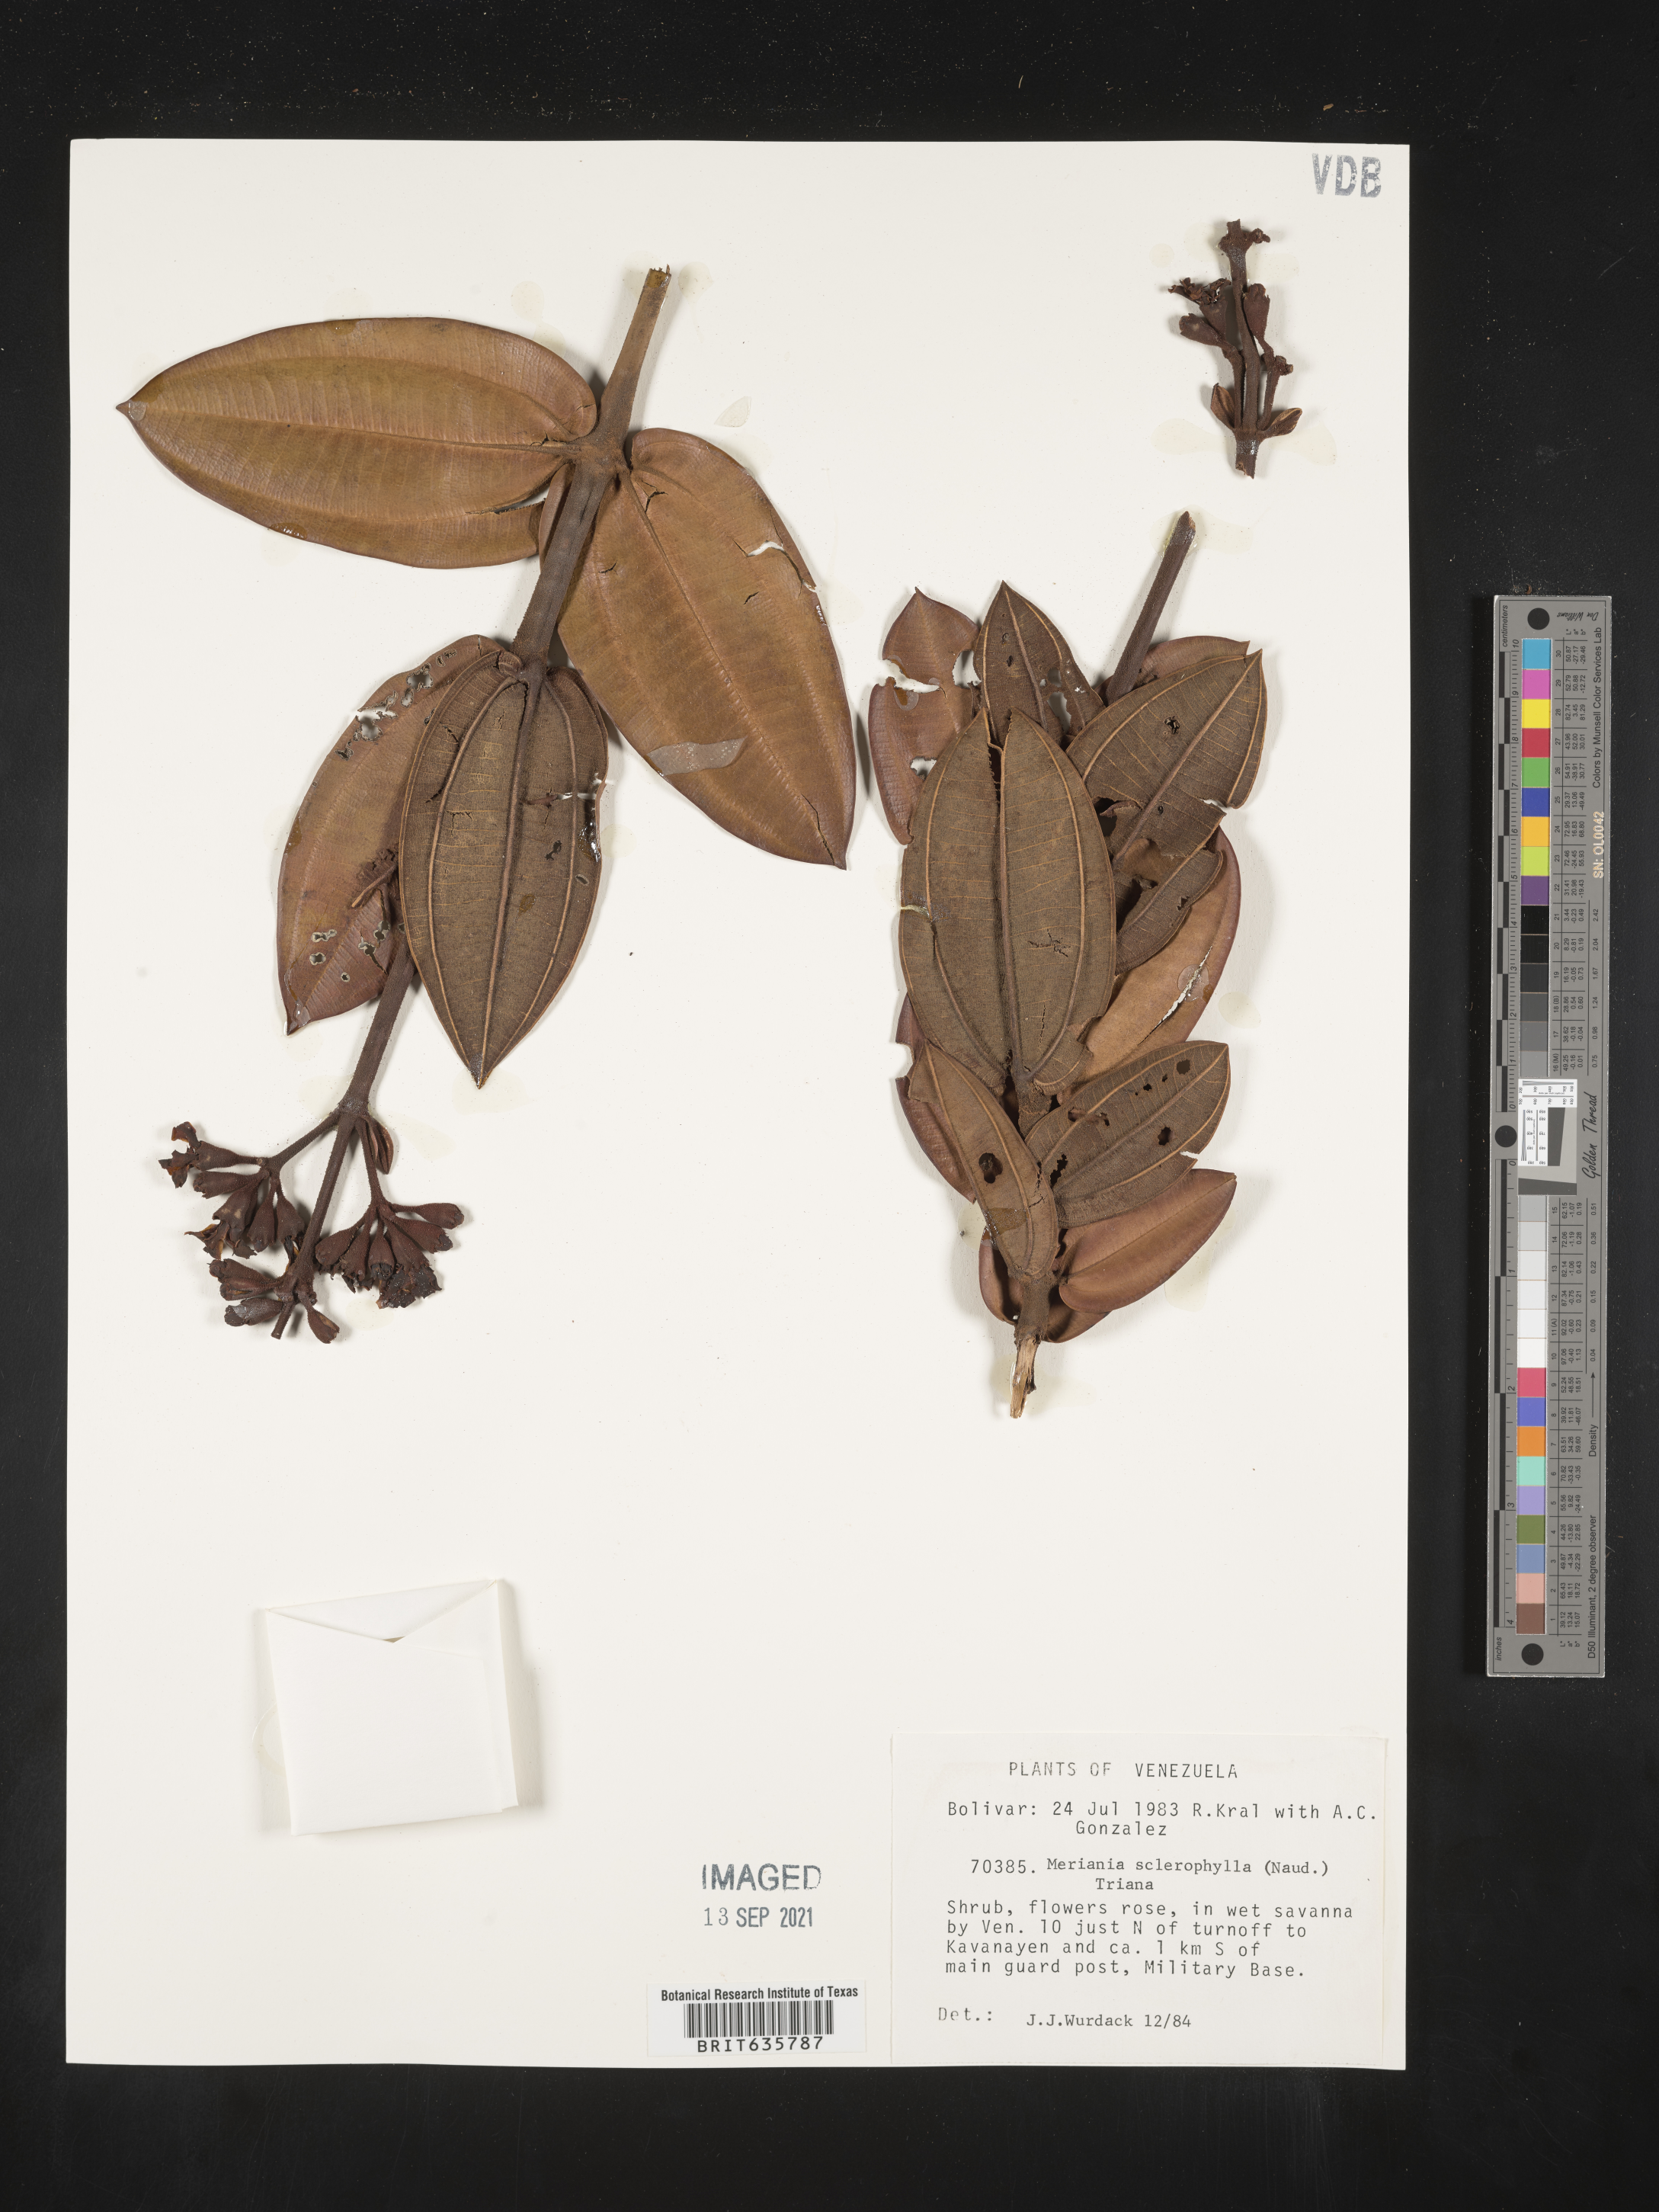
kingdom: Plantae
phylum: Tracheophyta
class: Magnoliopsida
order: Myrtales
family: Melastomataceae
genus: Meriania
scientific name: Meriania
